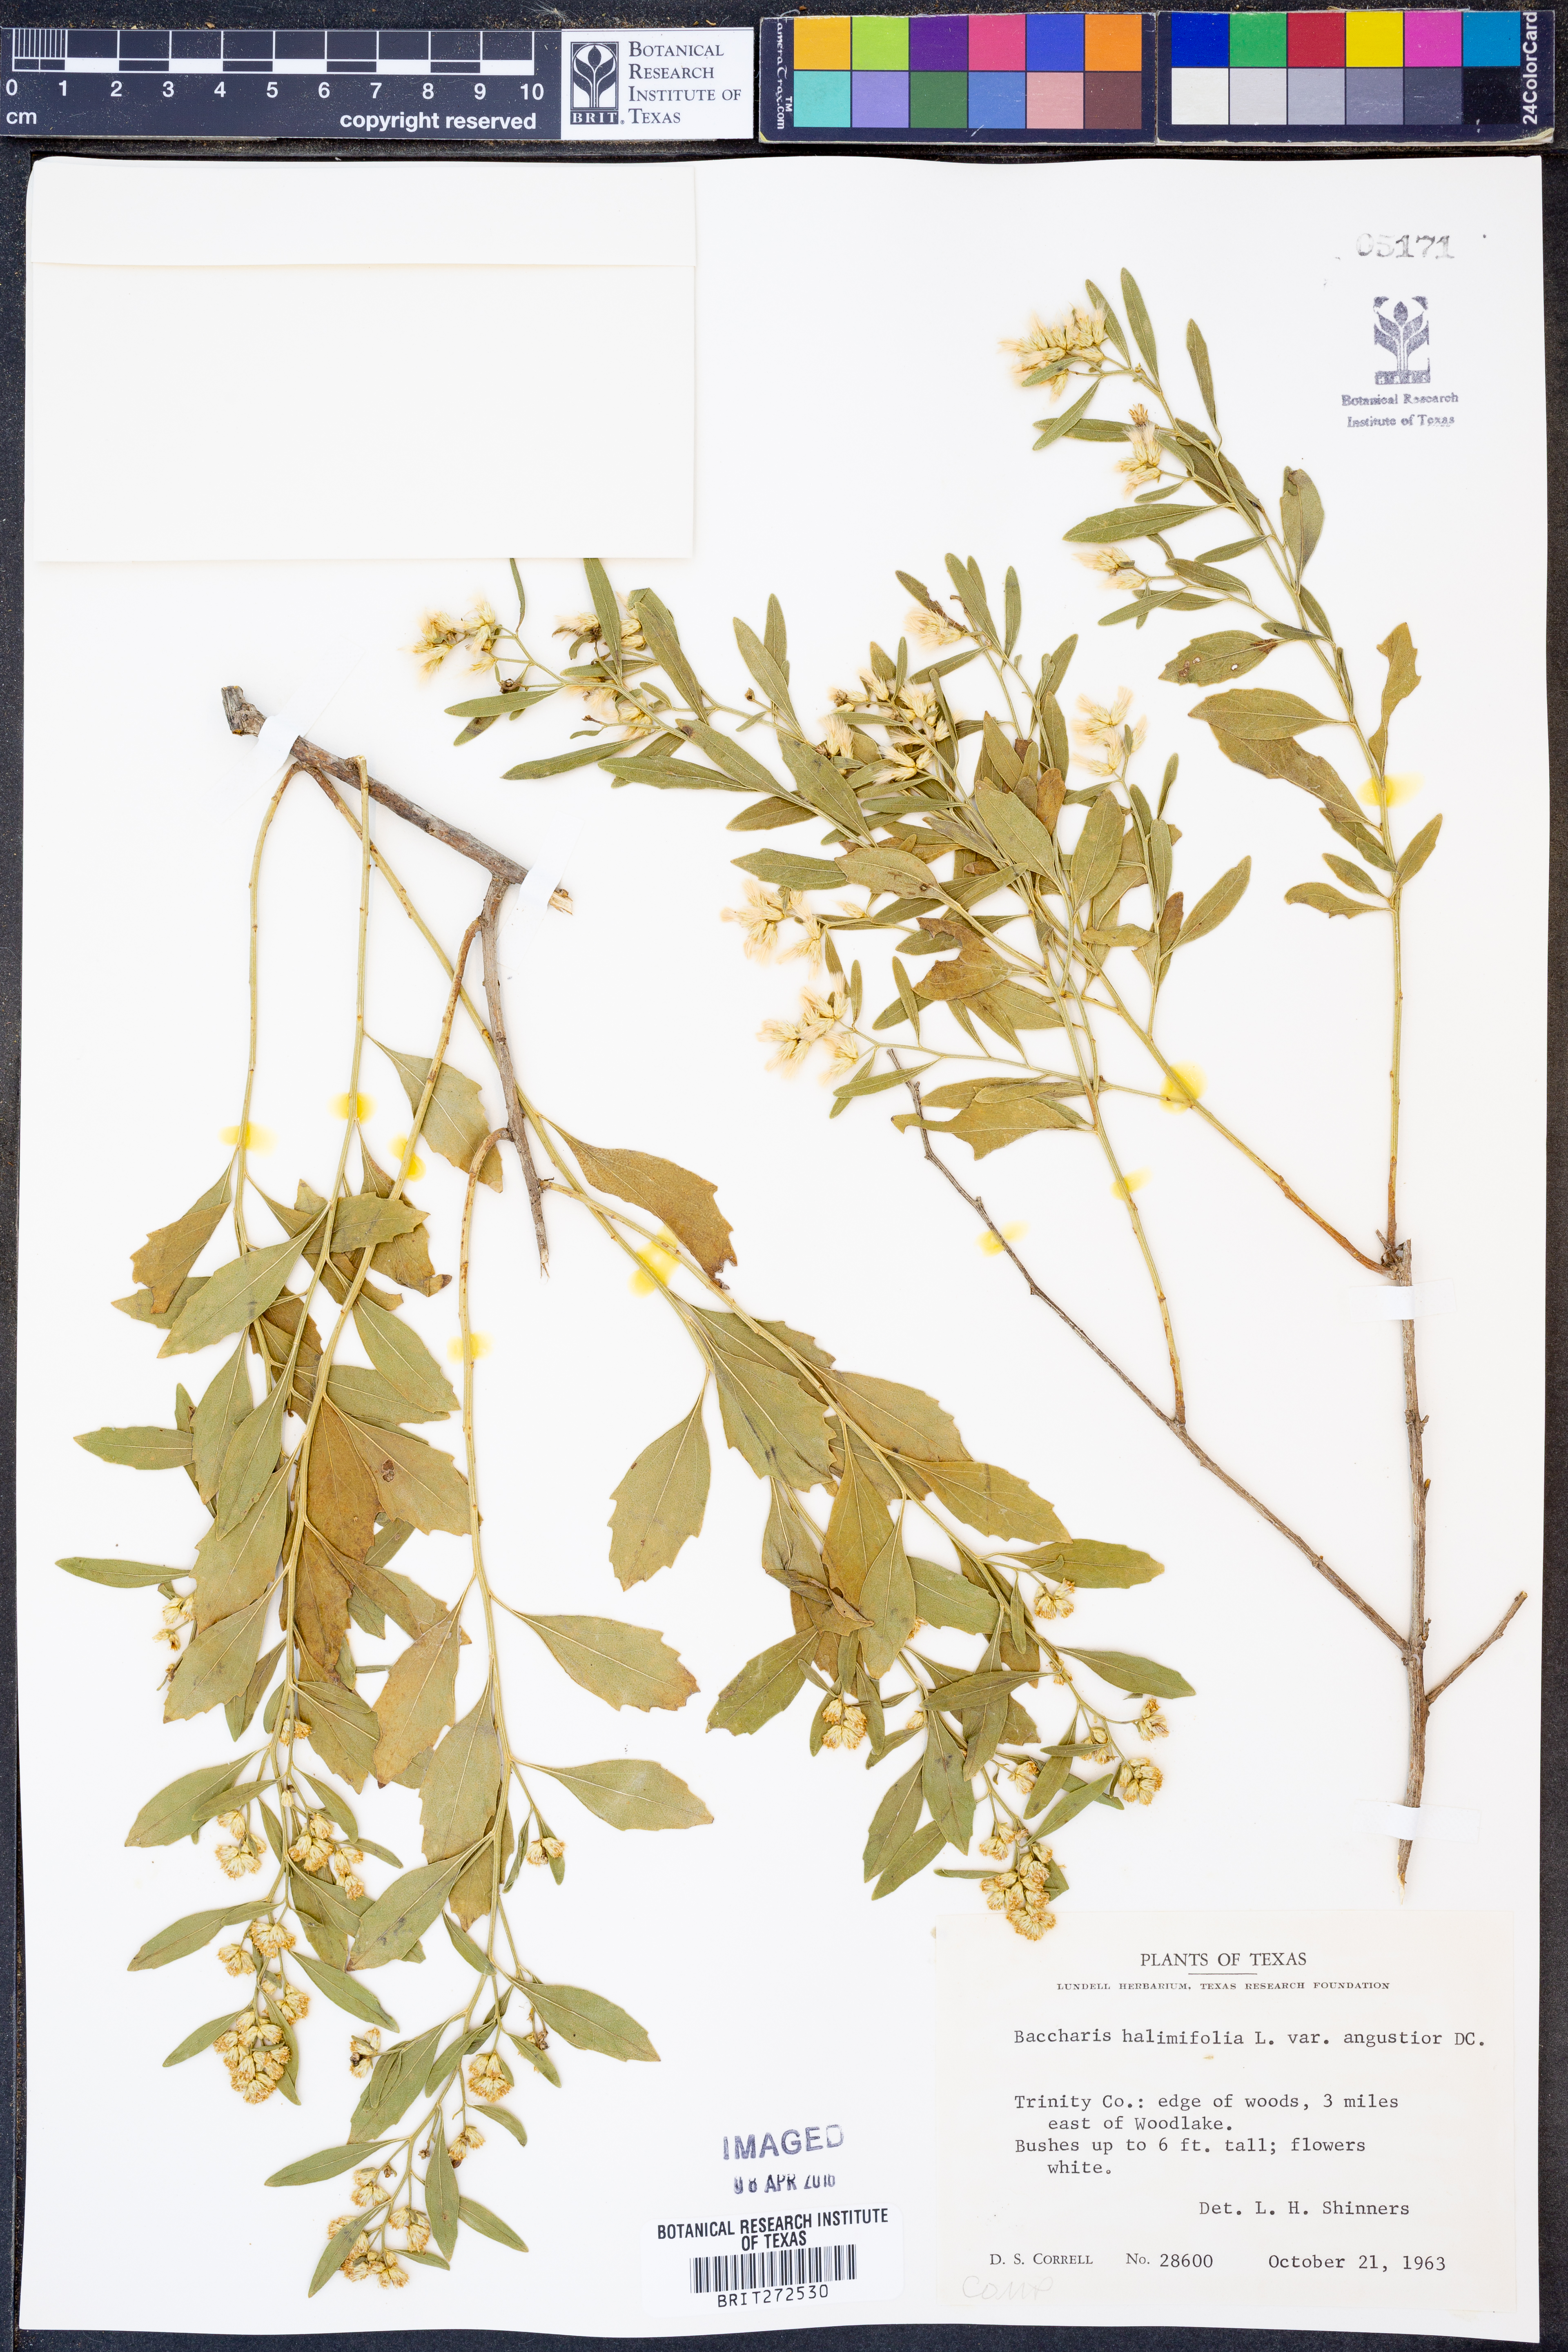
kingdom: Plantae
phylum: Tracheophyta
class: Magnoliopsida
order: Asterales
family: Asteraceae
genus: Baccharis
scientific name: Baccharis halimifolia
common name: Eastern baccharis
